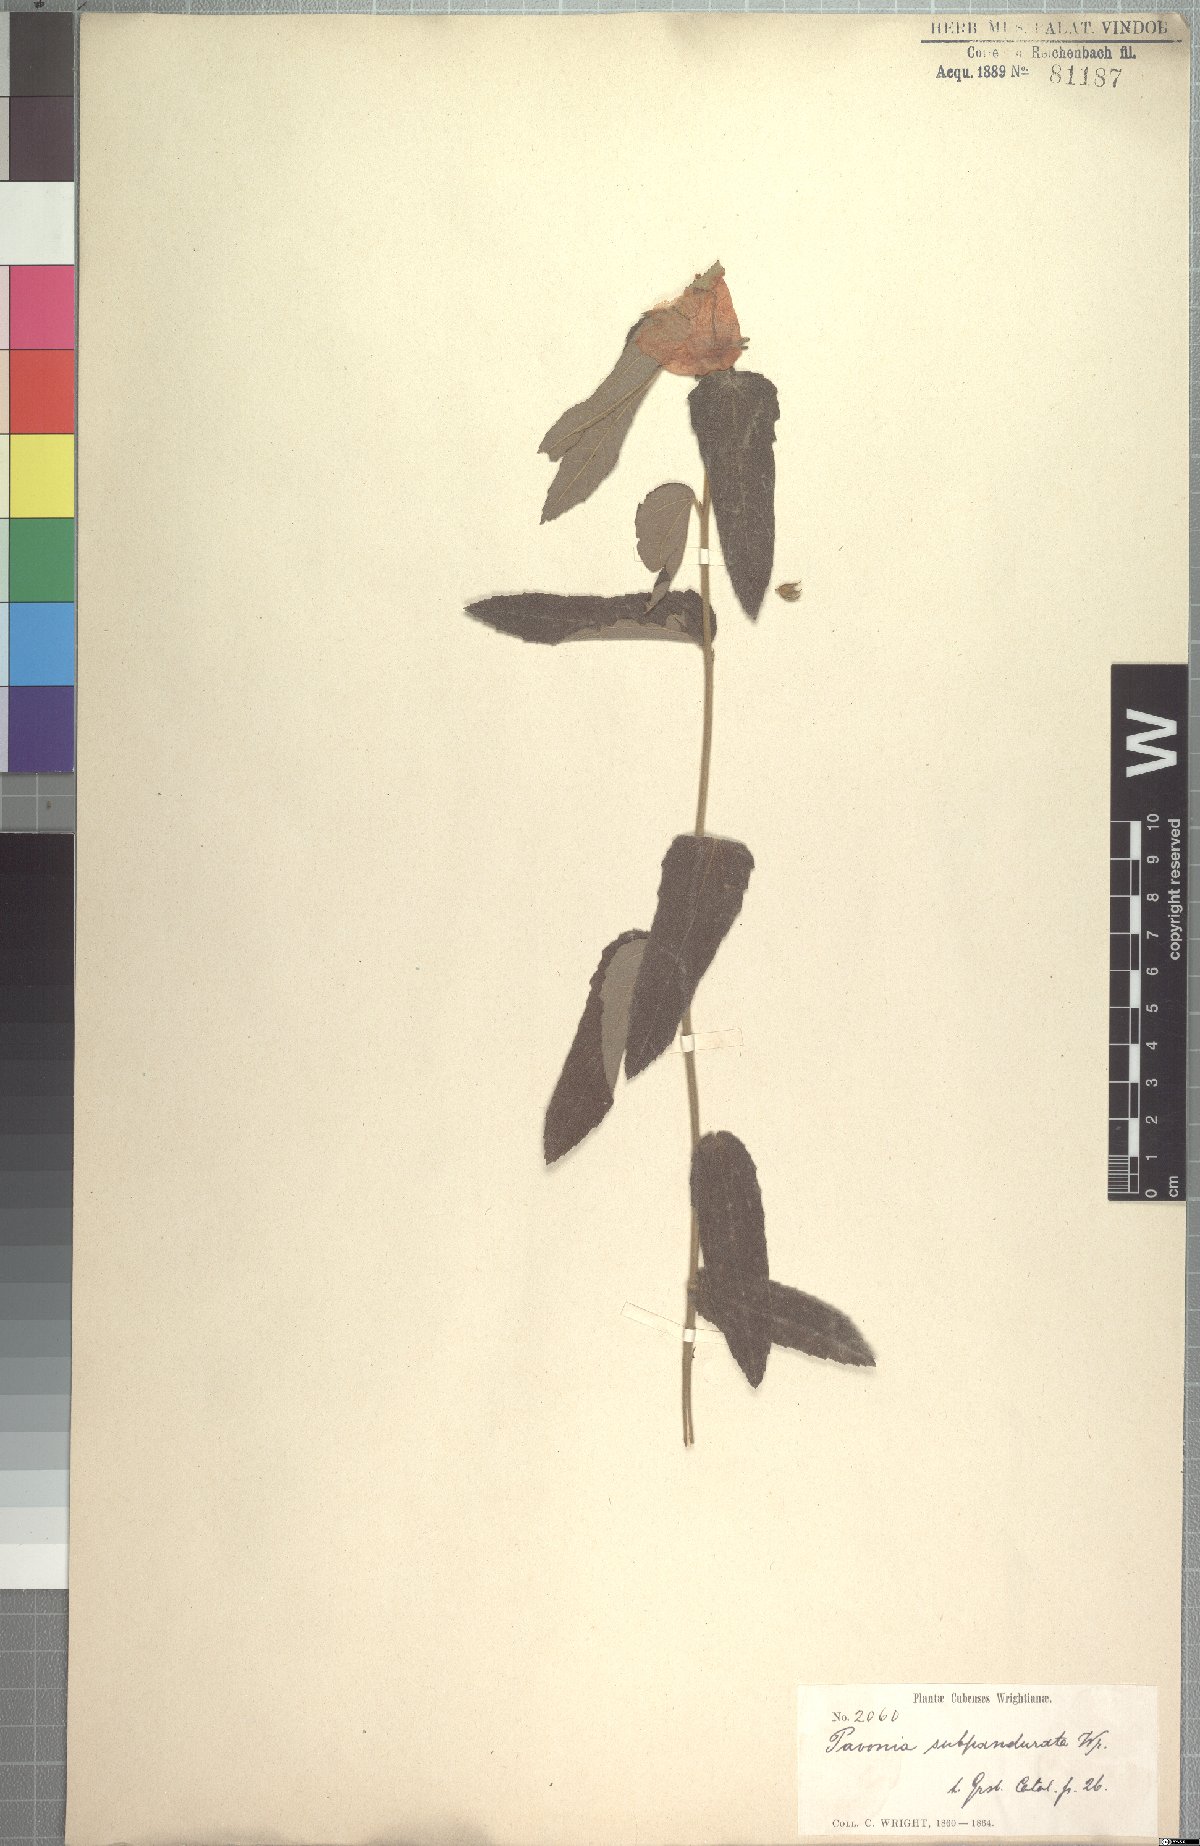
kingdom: Plantae
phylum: Tracheophyta
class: Magnoliopsida
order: Malvales
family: Malvaceae
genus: Peltaea
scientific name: Peltaea subpandurata
